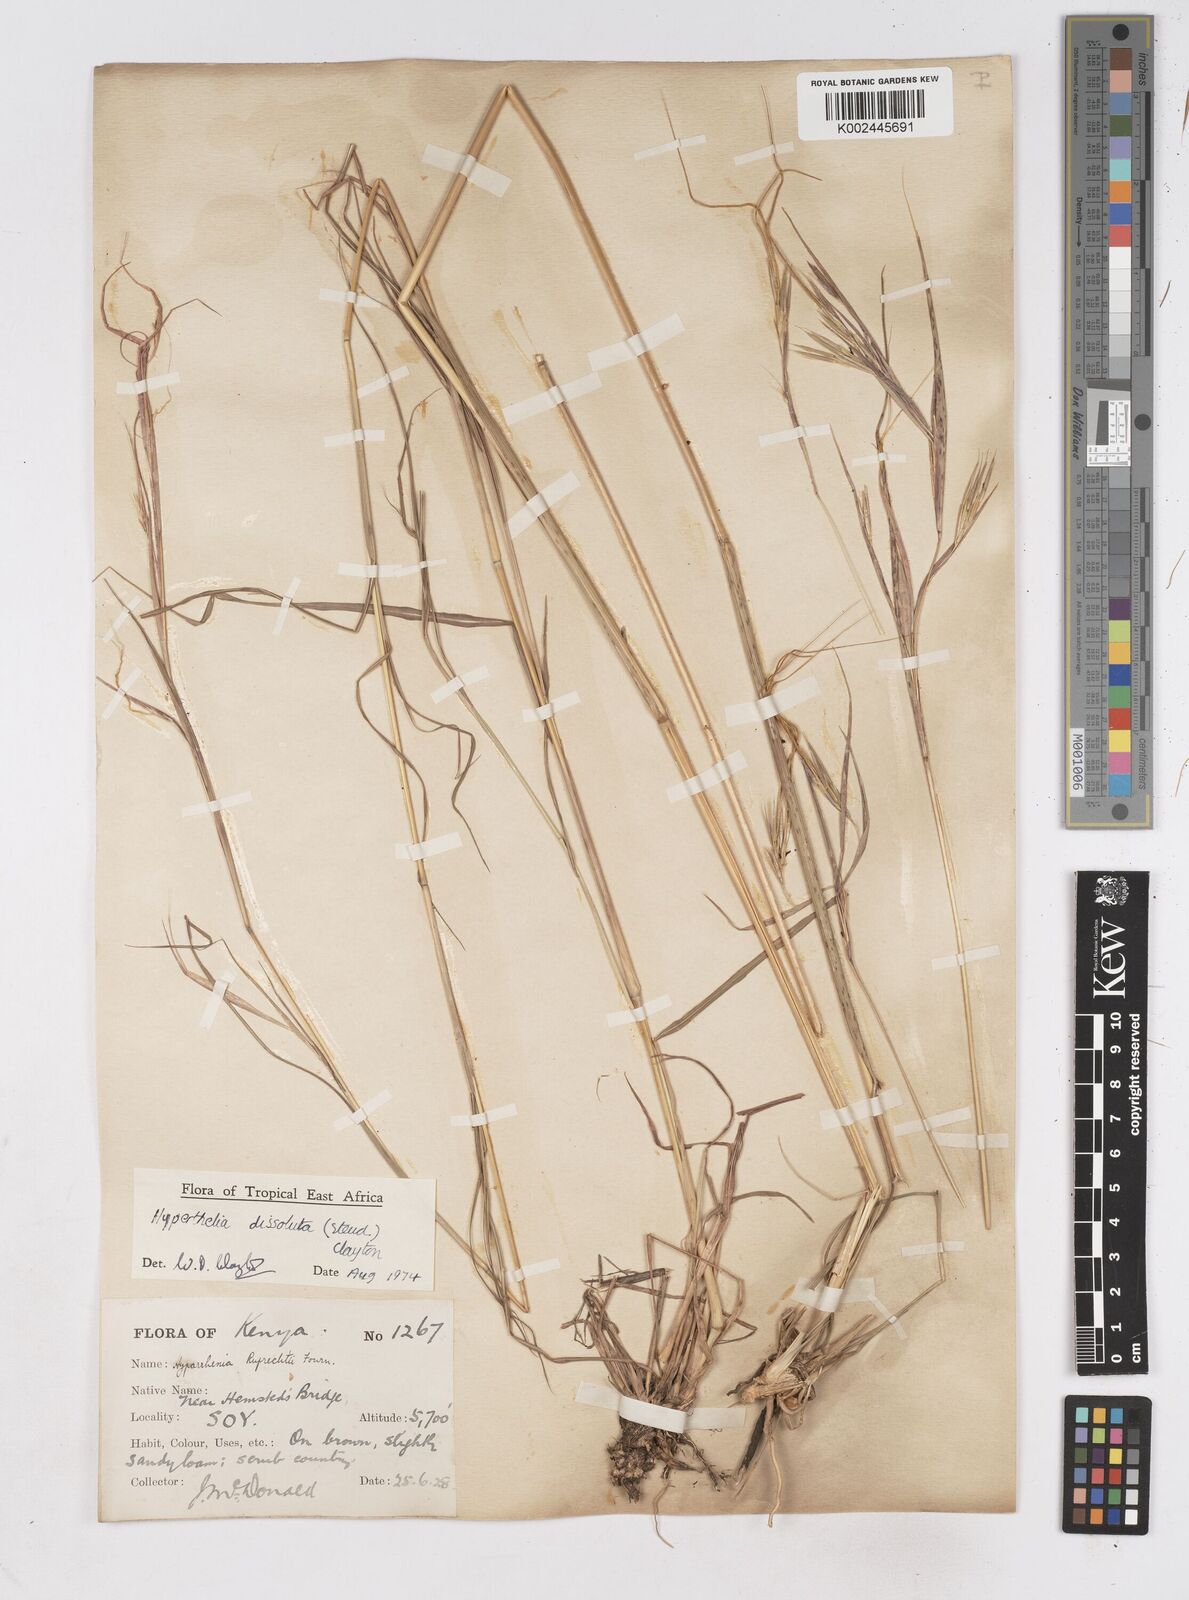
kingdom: Plantae
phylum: Tracheophyta
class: Liliopsida
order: Poales
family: Poaceae
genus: Hyperthelia
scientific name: Hyperthelia dissoluta
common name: Yellow thatching grass
